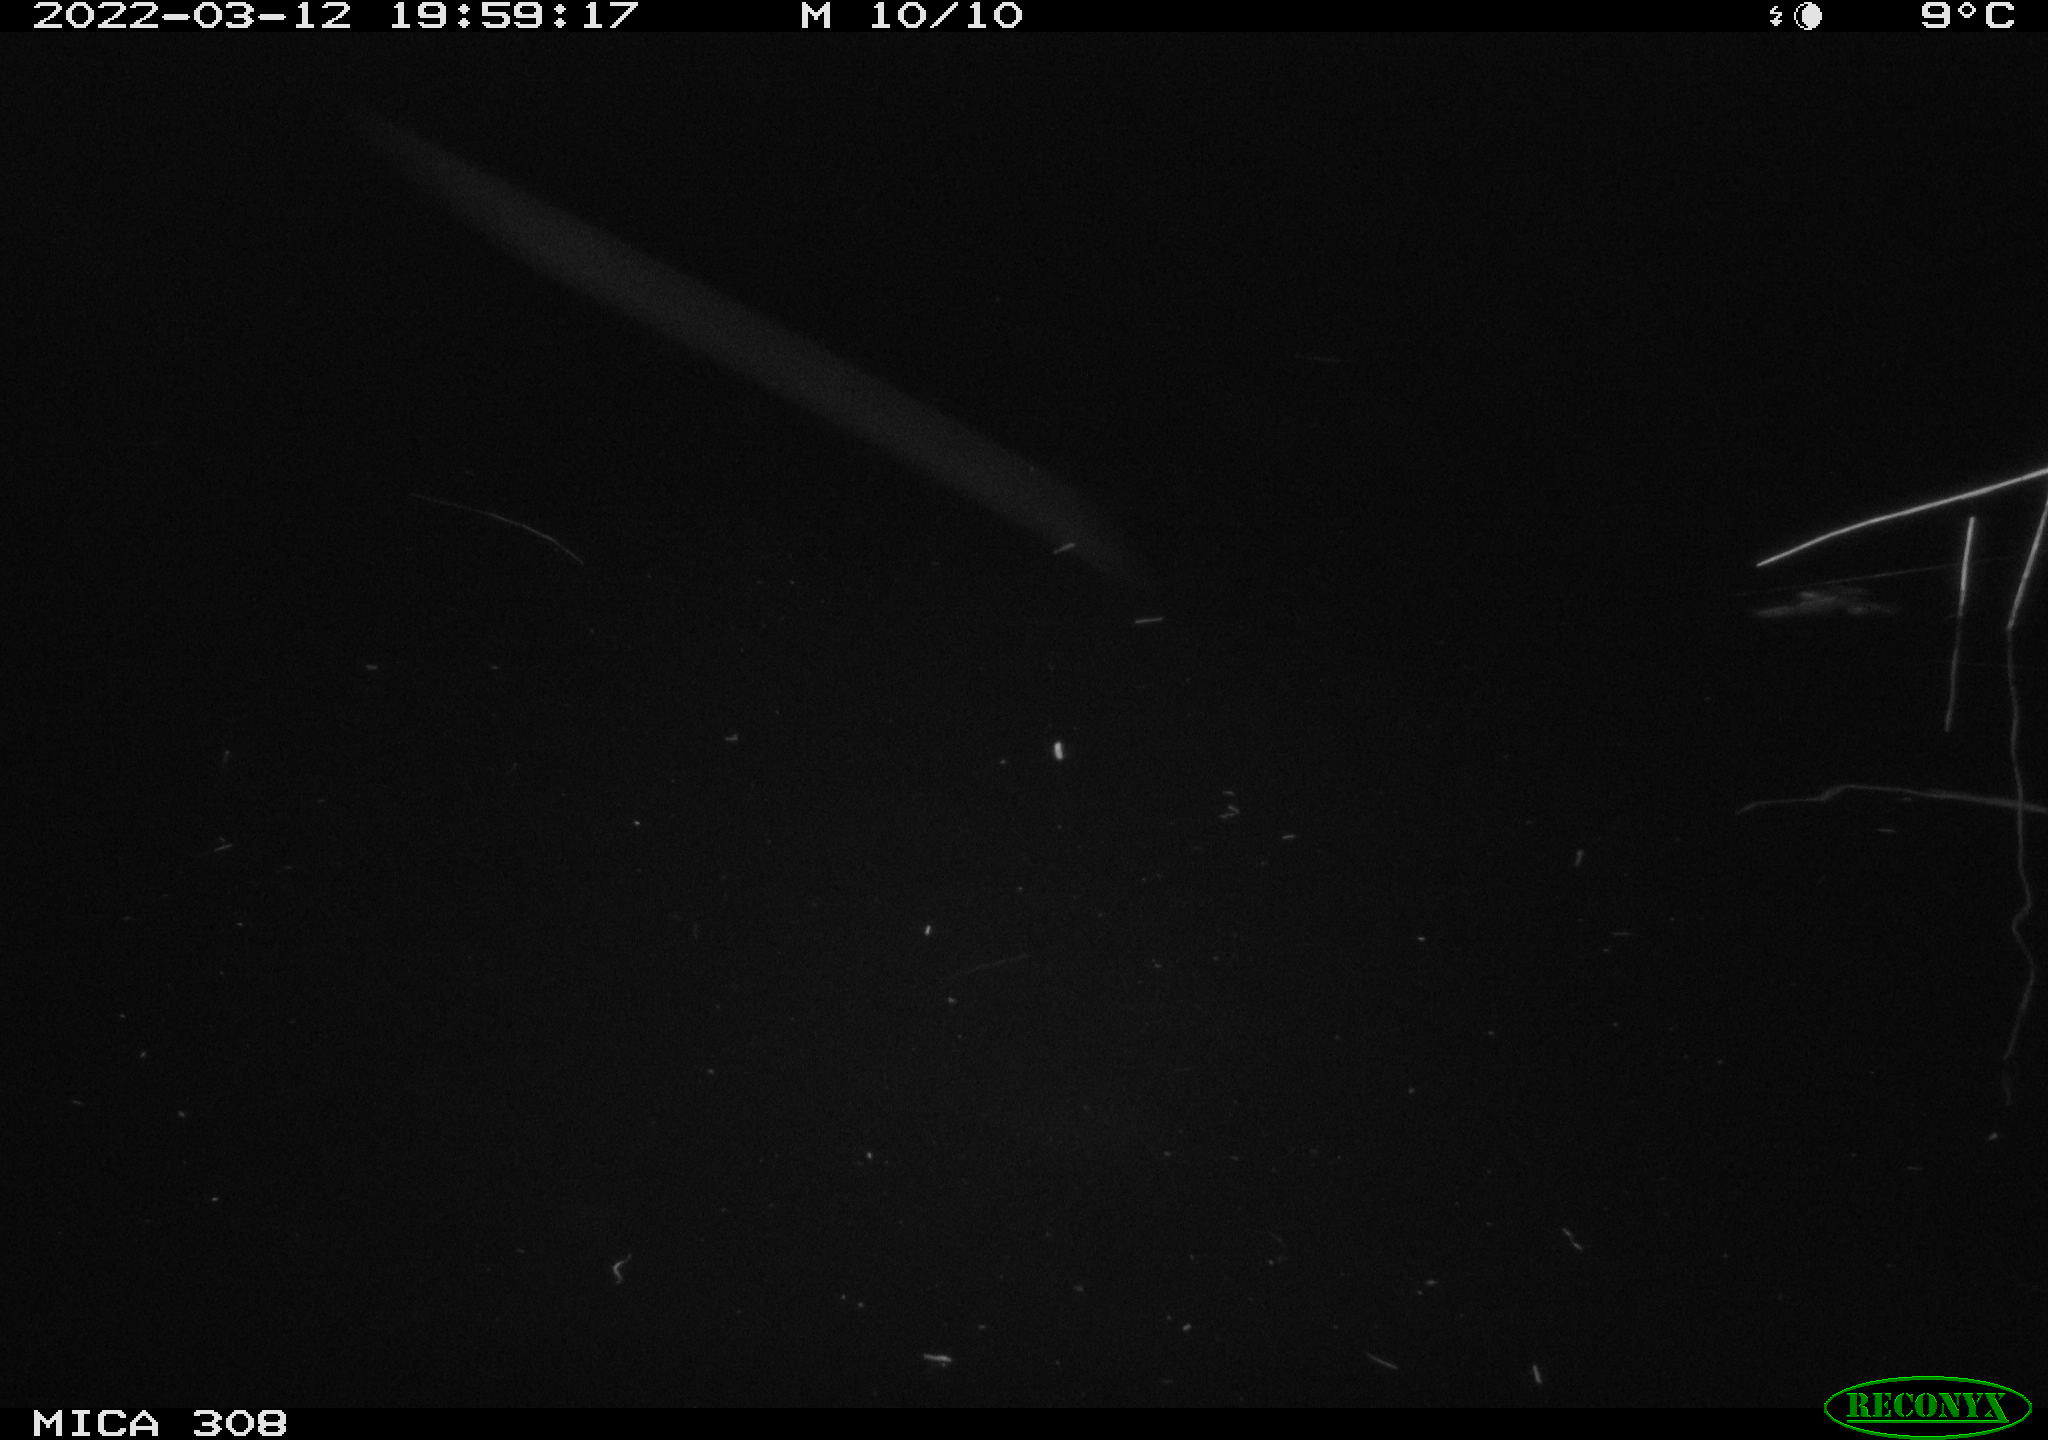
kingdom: Animalia
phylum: Chordata
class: Mammalia
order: Rodentia
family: Cricetidae
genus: Ondatra
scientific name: Ondatra zibethicus
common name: Muskrat
